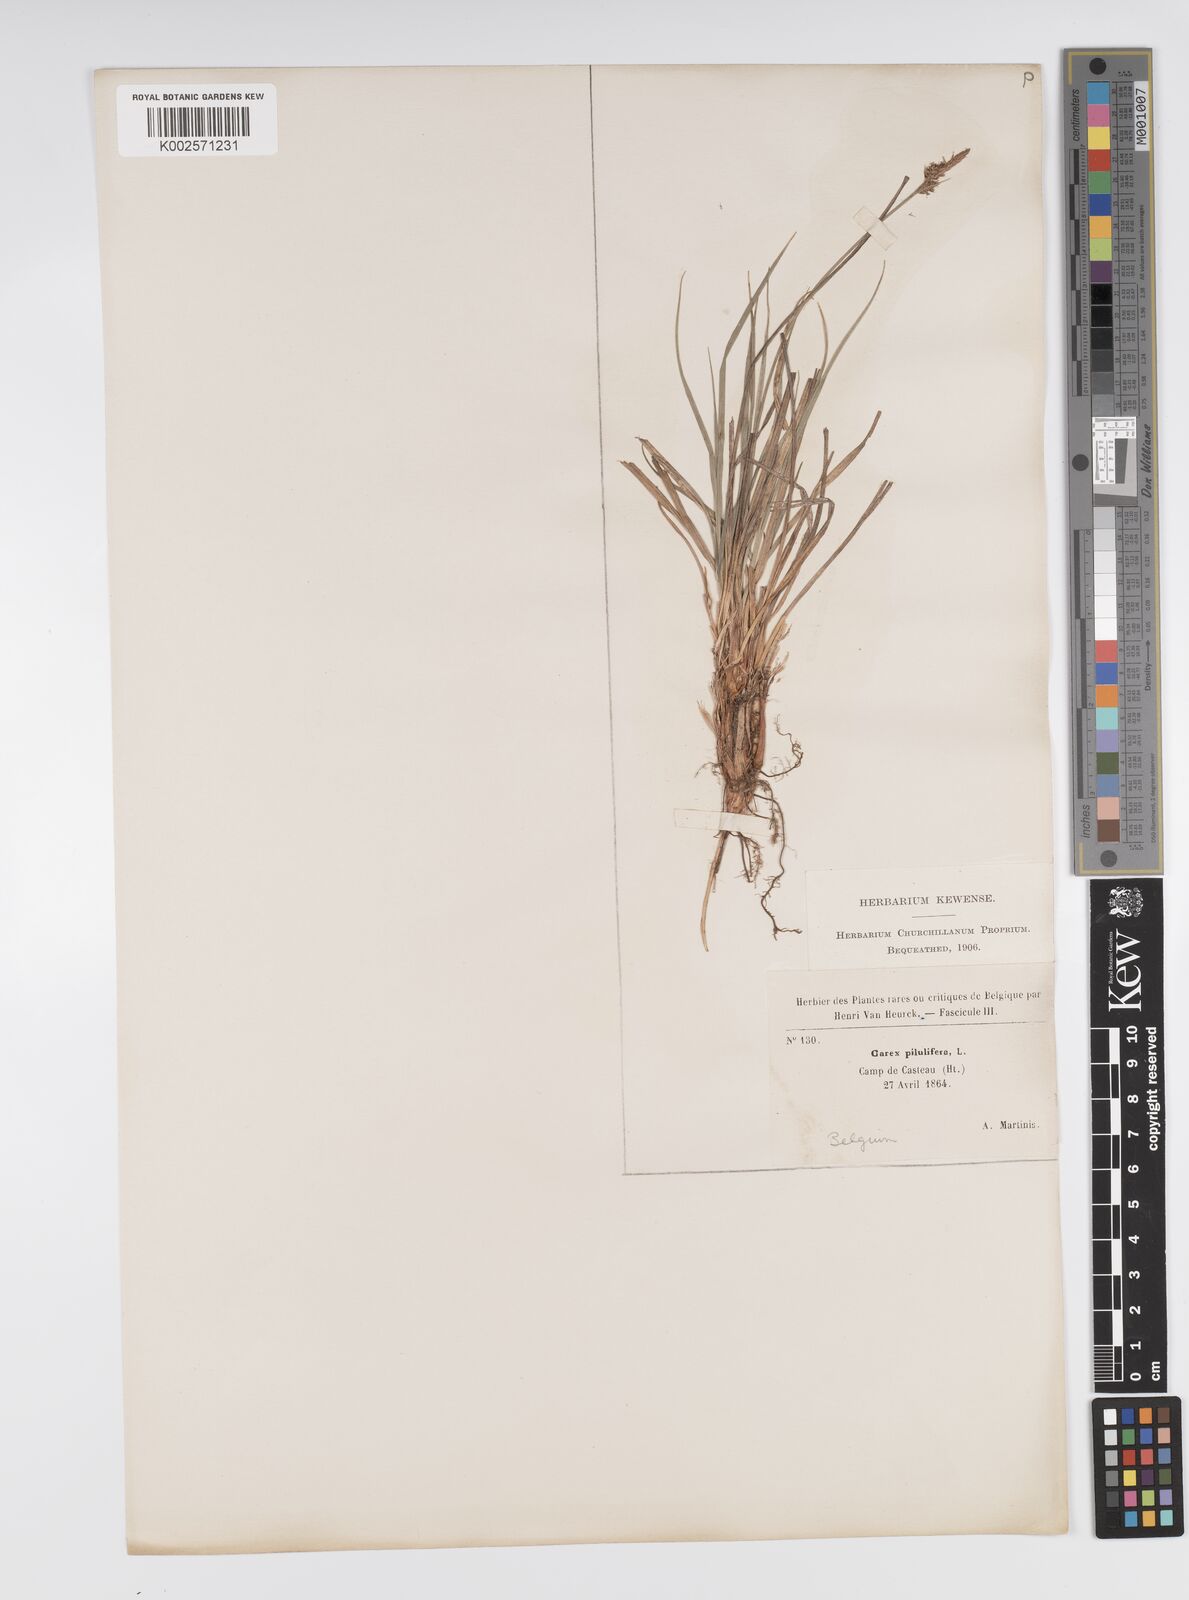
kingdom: Plantae
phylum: Tracheophyta
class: Liliopsida
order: Poales
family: Cyperaceae
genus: Carex
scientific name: Carex pilulifera
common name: Pill sedge
